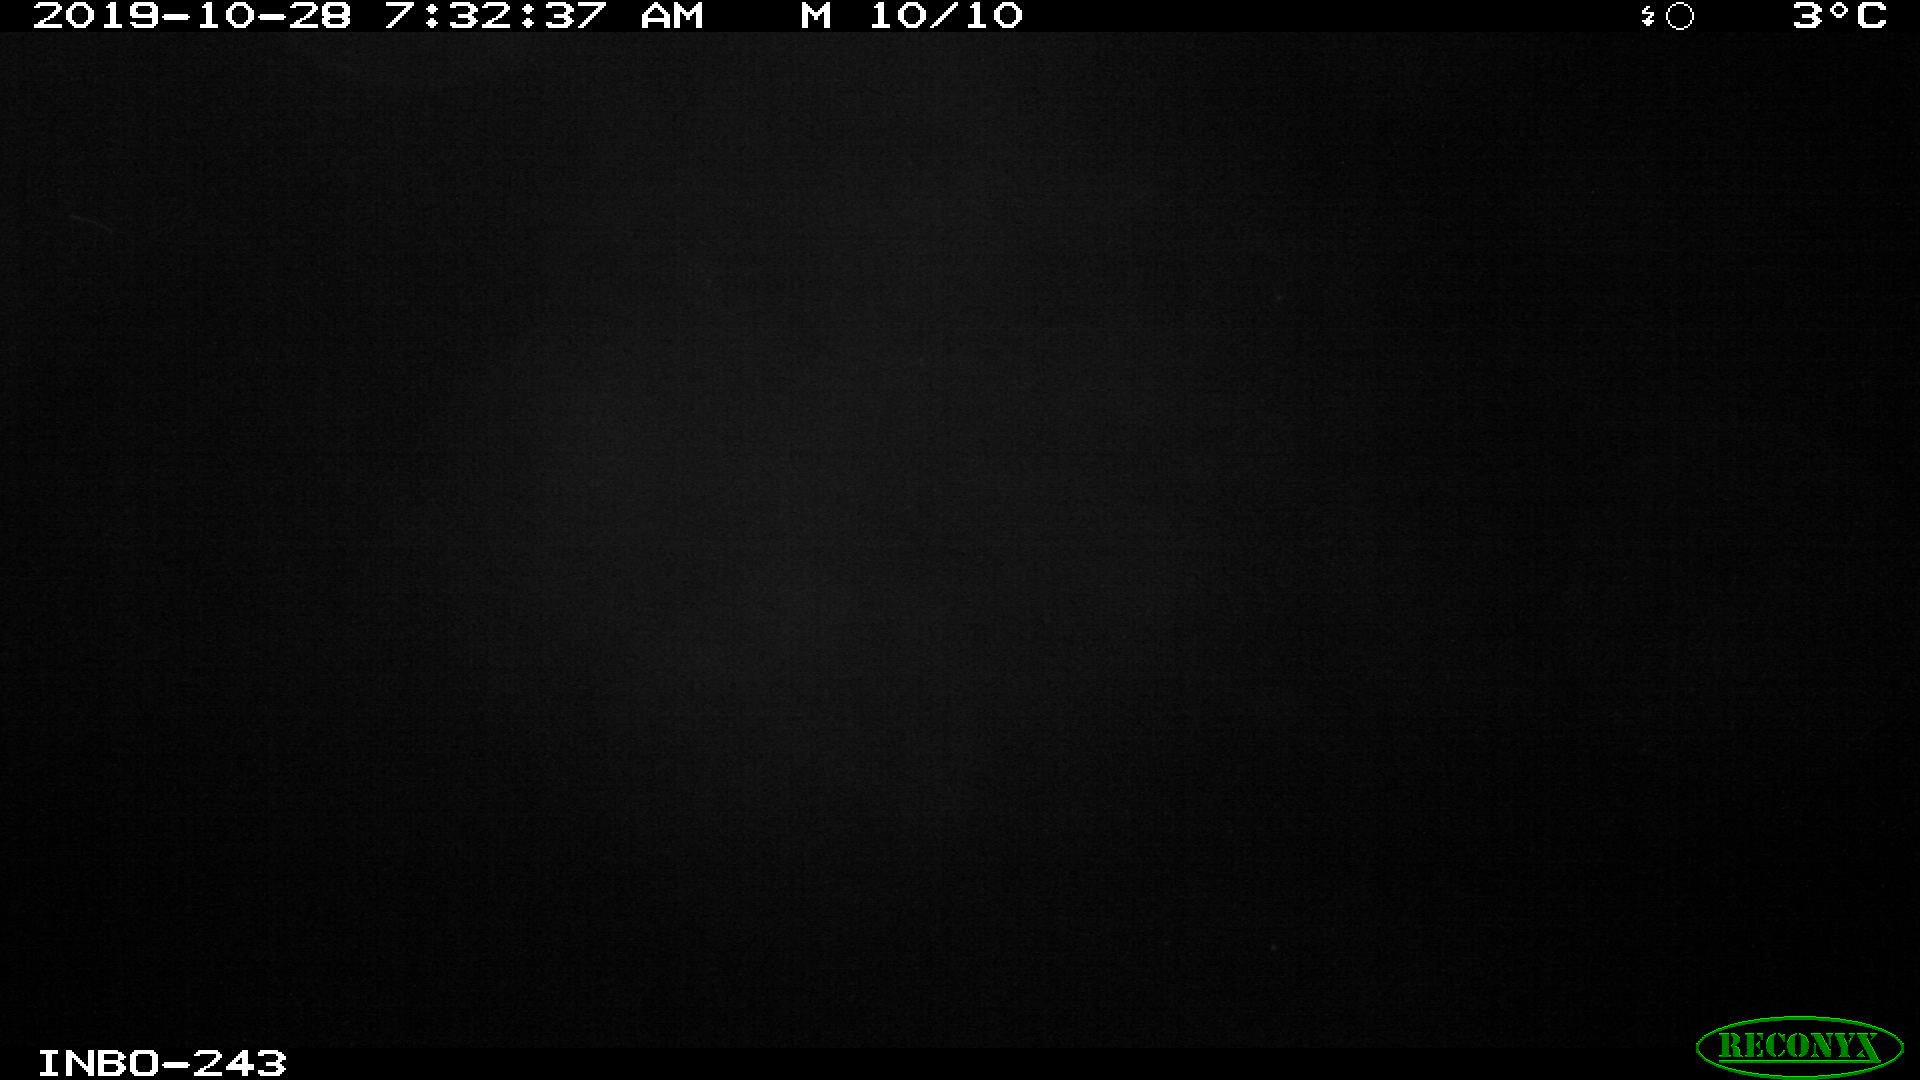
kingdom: Animalia
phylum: Chordata
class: Aves
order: Anseriformes
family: Anatidae
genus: Anas
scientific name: Anas platyrhynchos
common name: Mallard
